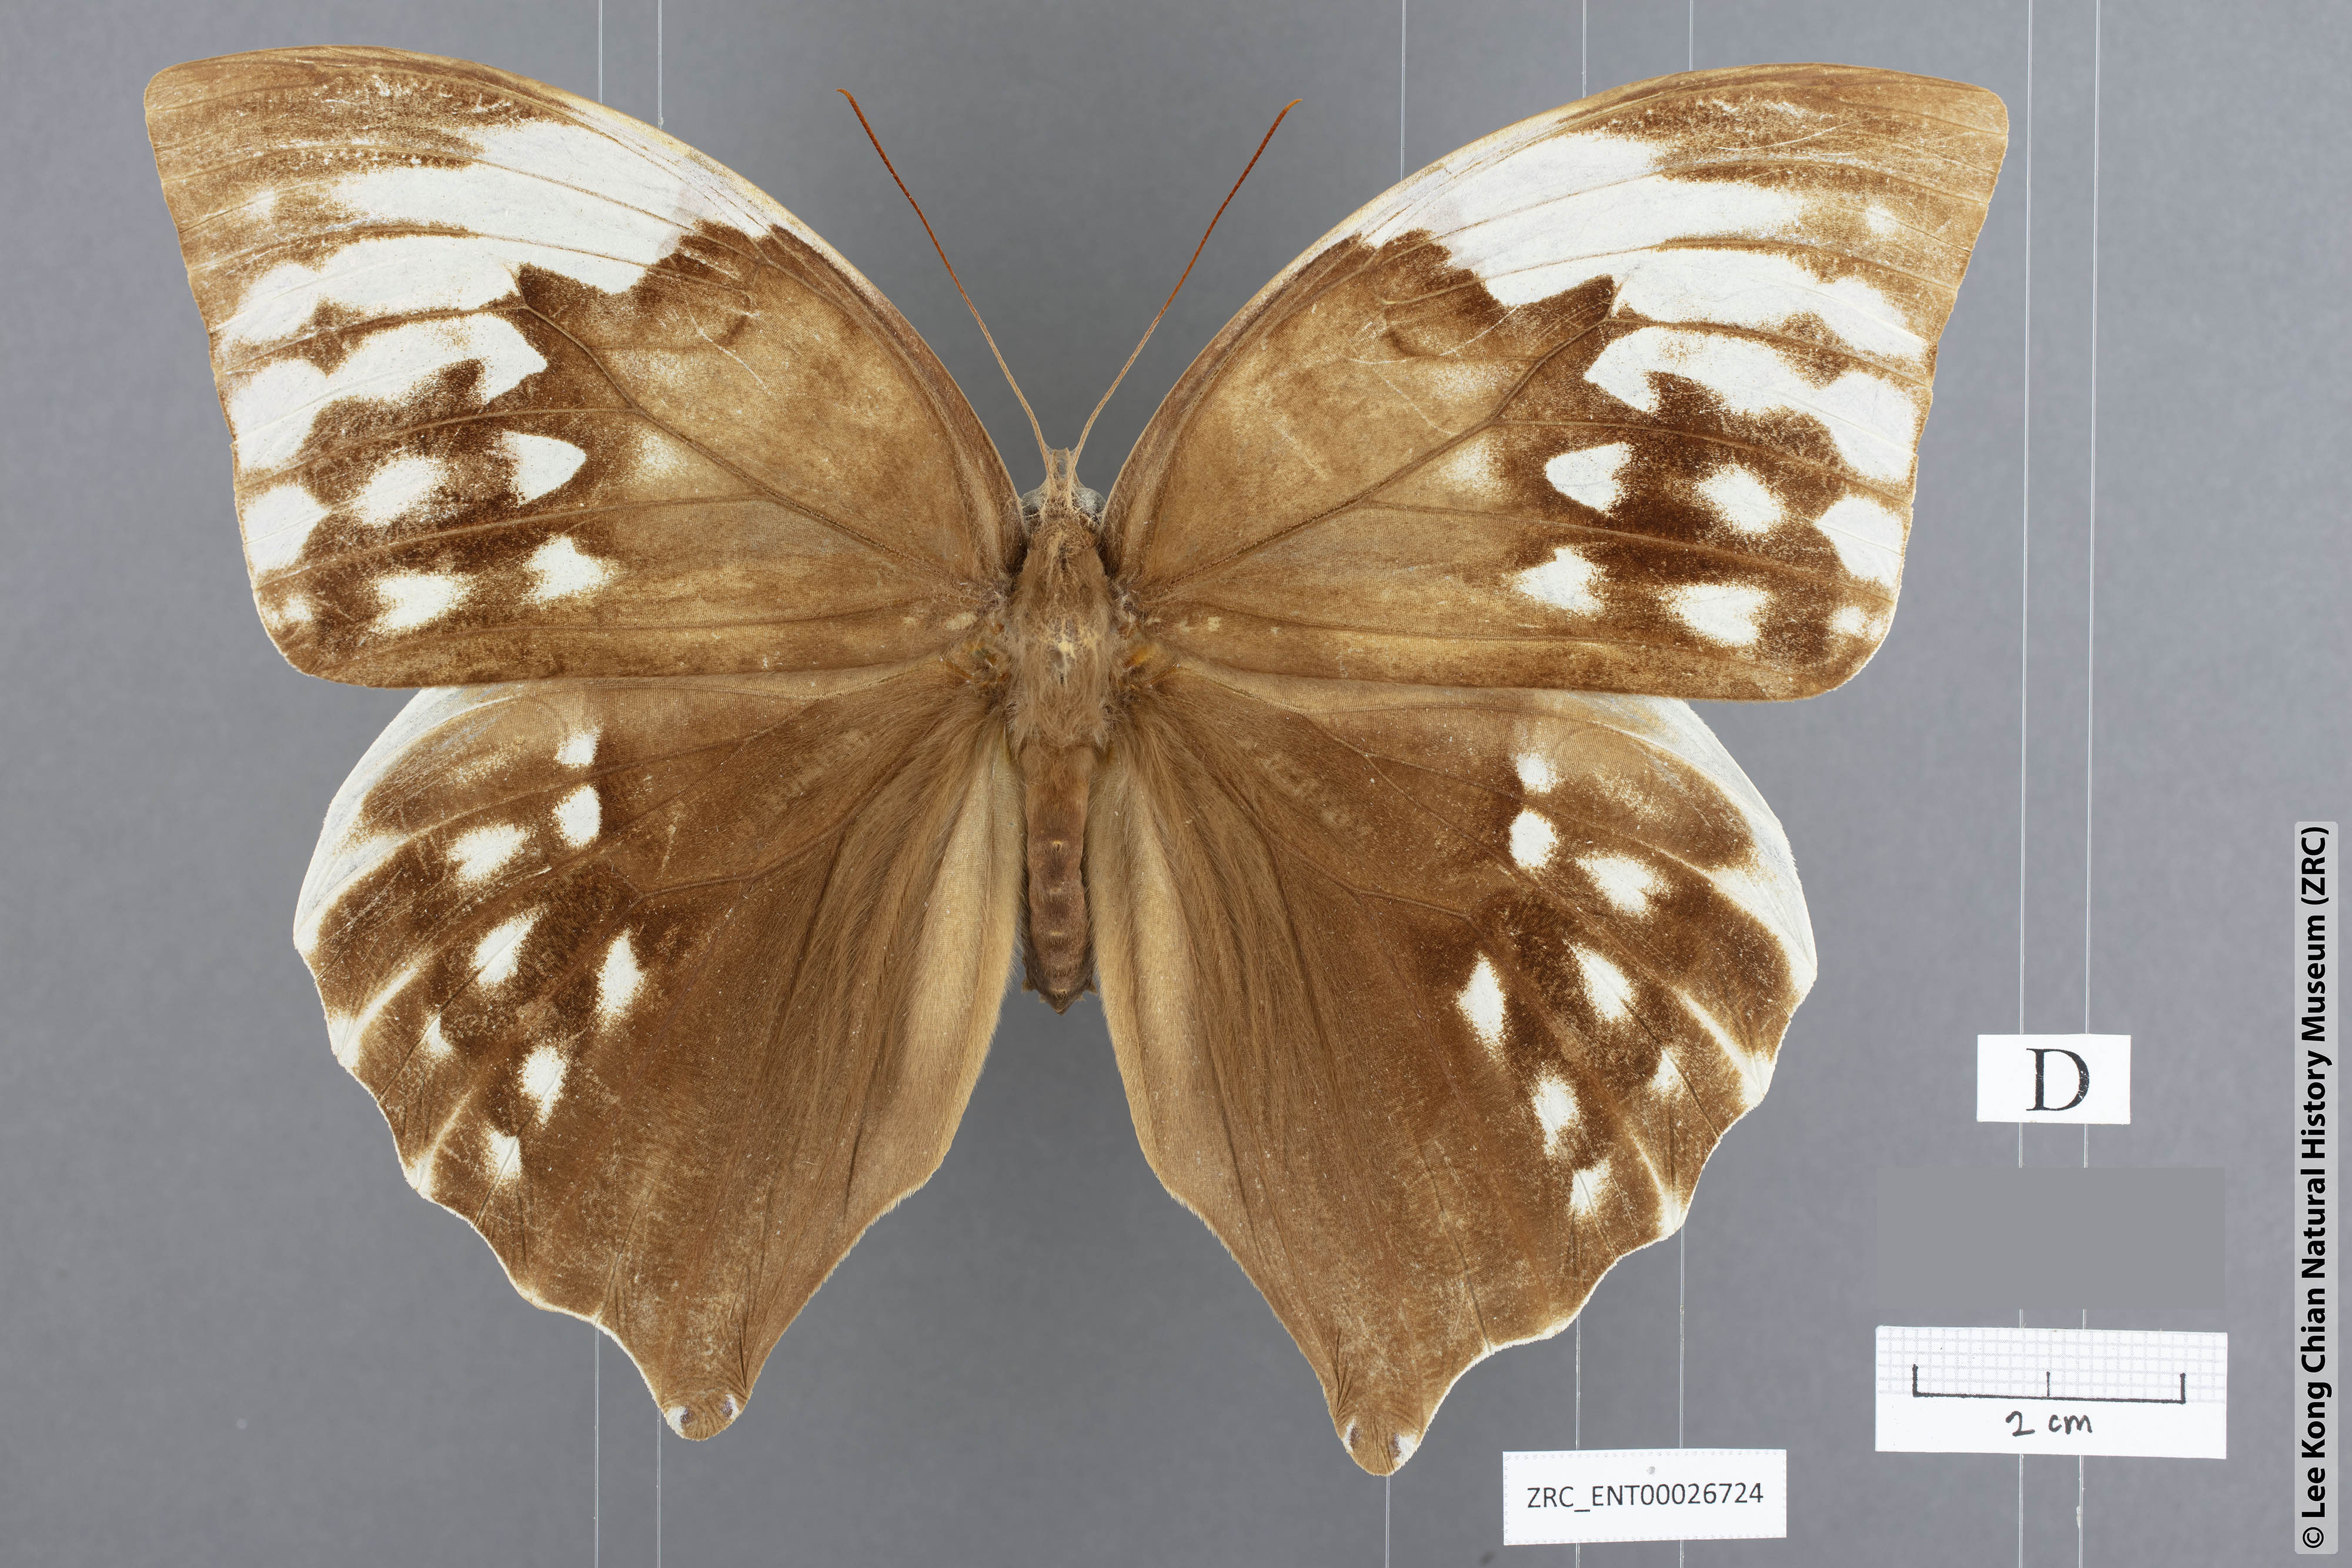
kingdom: Animalia
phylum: Arthropoda
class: Insecta
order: Lepidoptera
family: Nymphalidae
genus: Zeuxidia
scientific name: Zeuxidia aurelia
